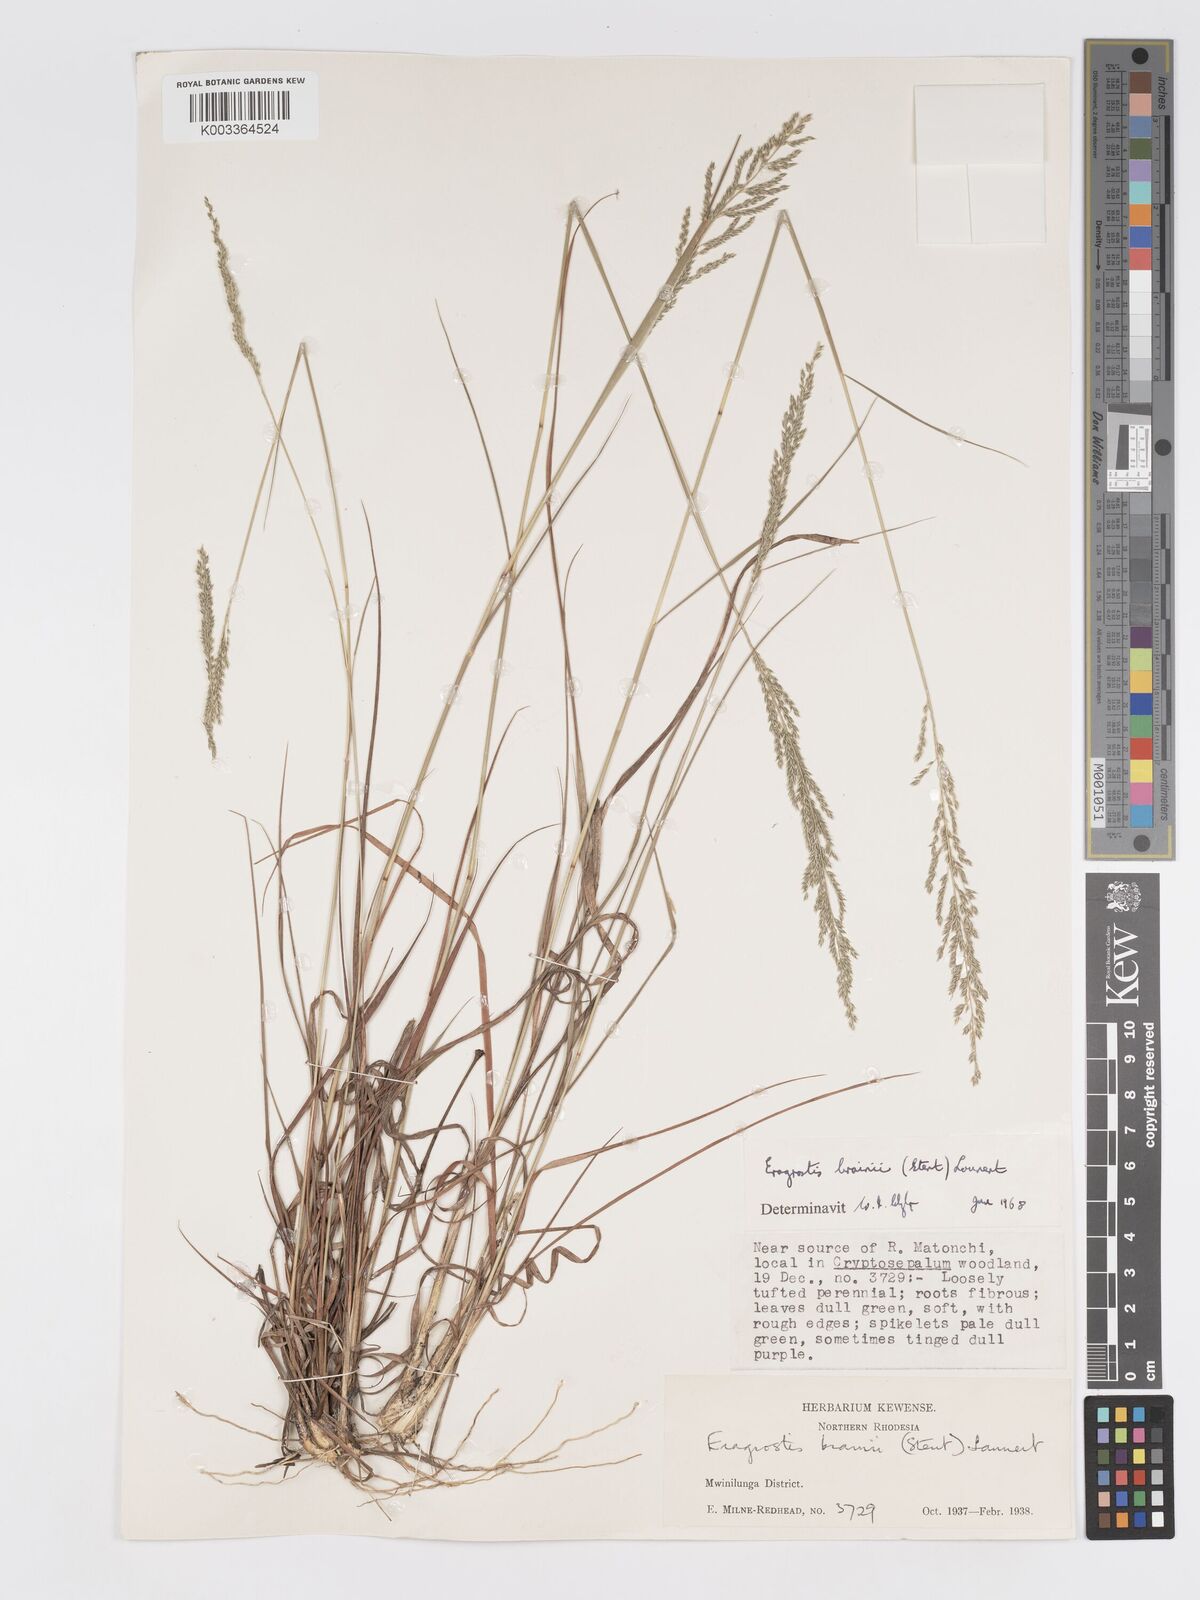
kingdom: Plantae
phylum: Tracheophyta
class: Liliopsida
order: Poales
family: Poaceae
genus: Eragrostis
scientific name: Eragrostis brainii
